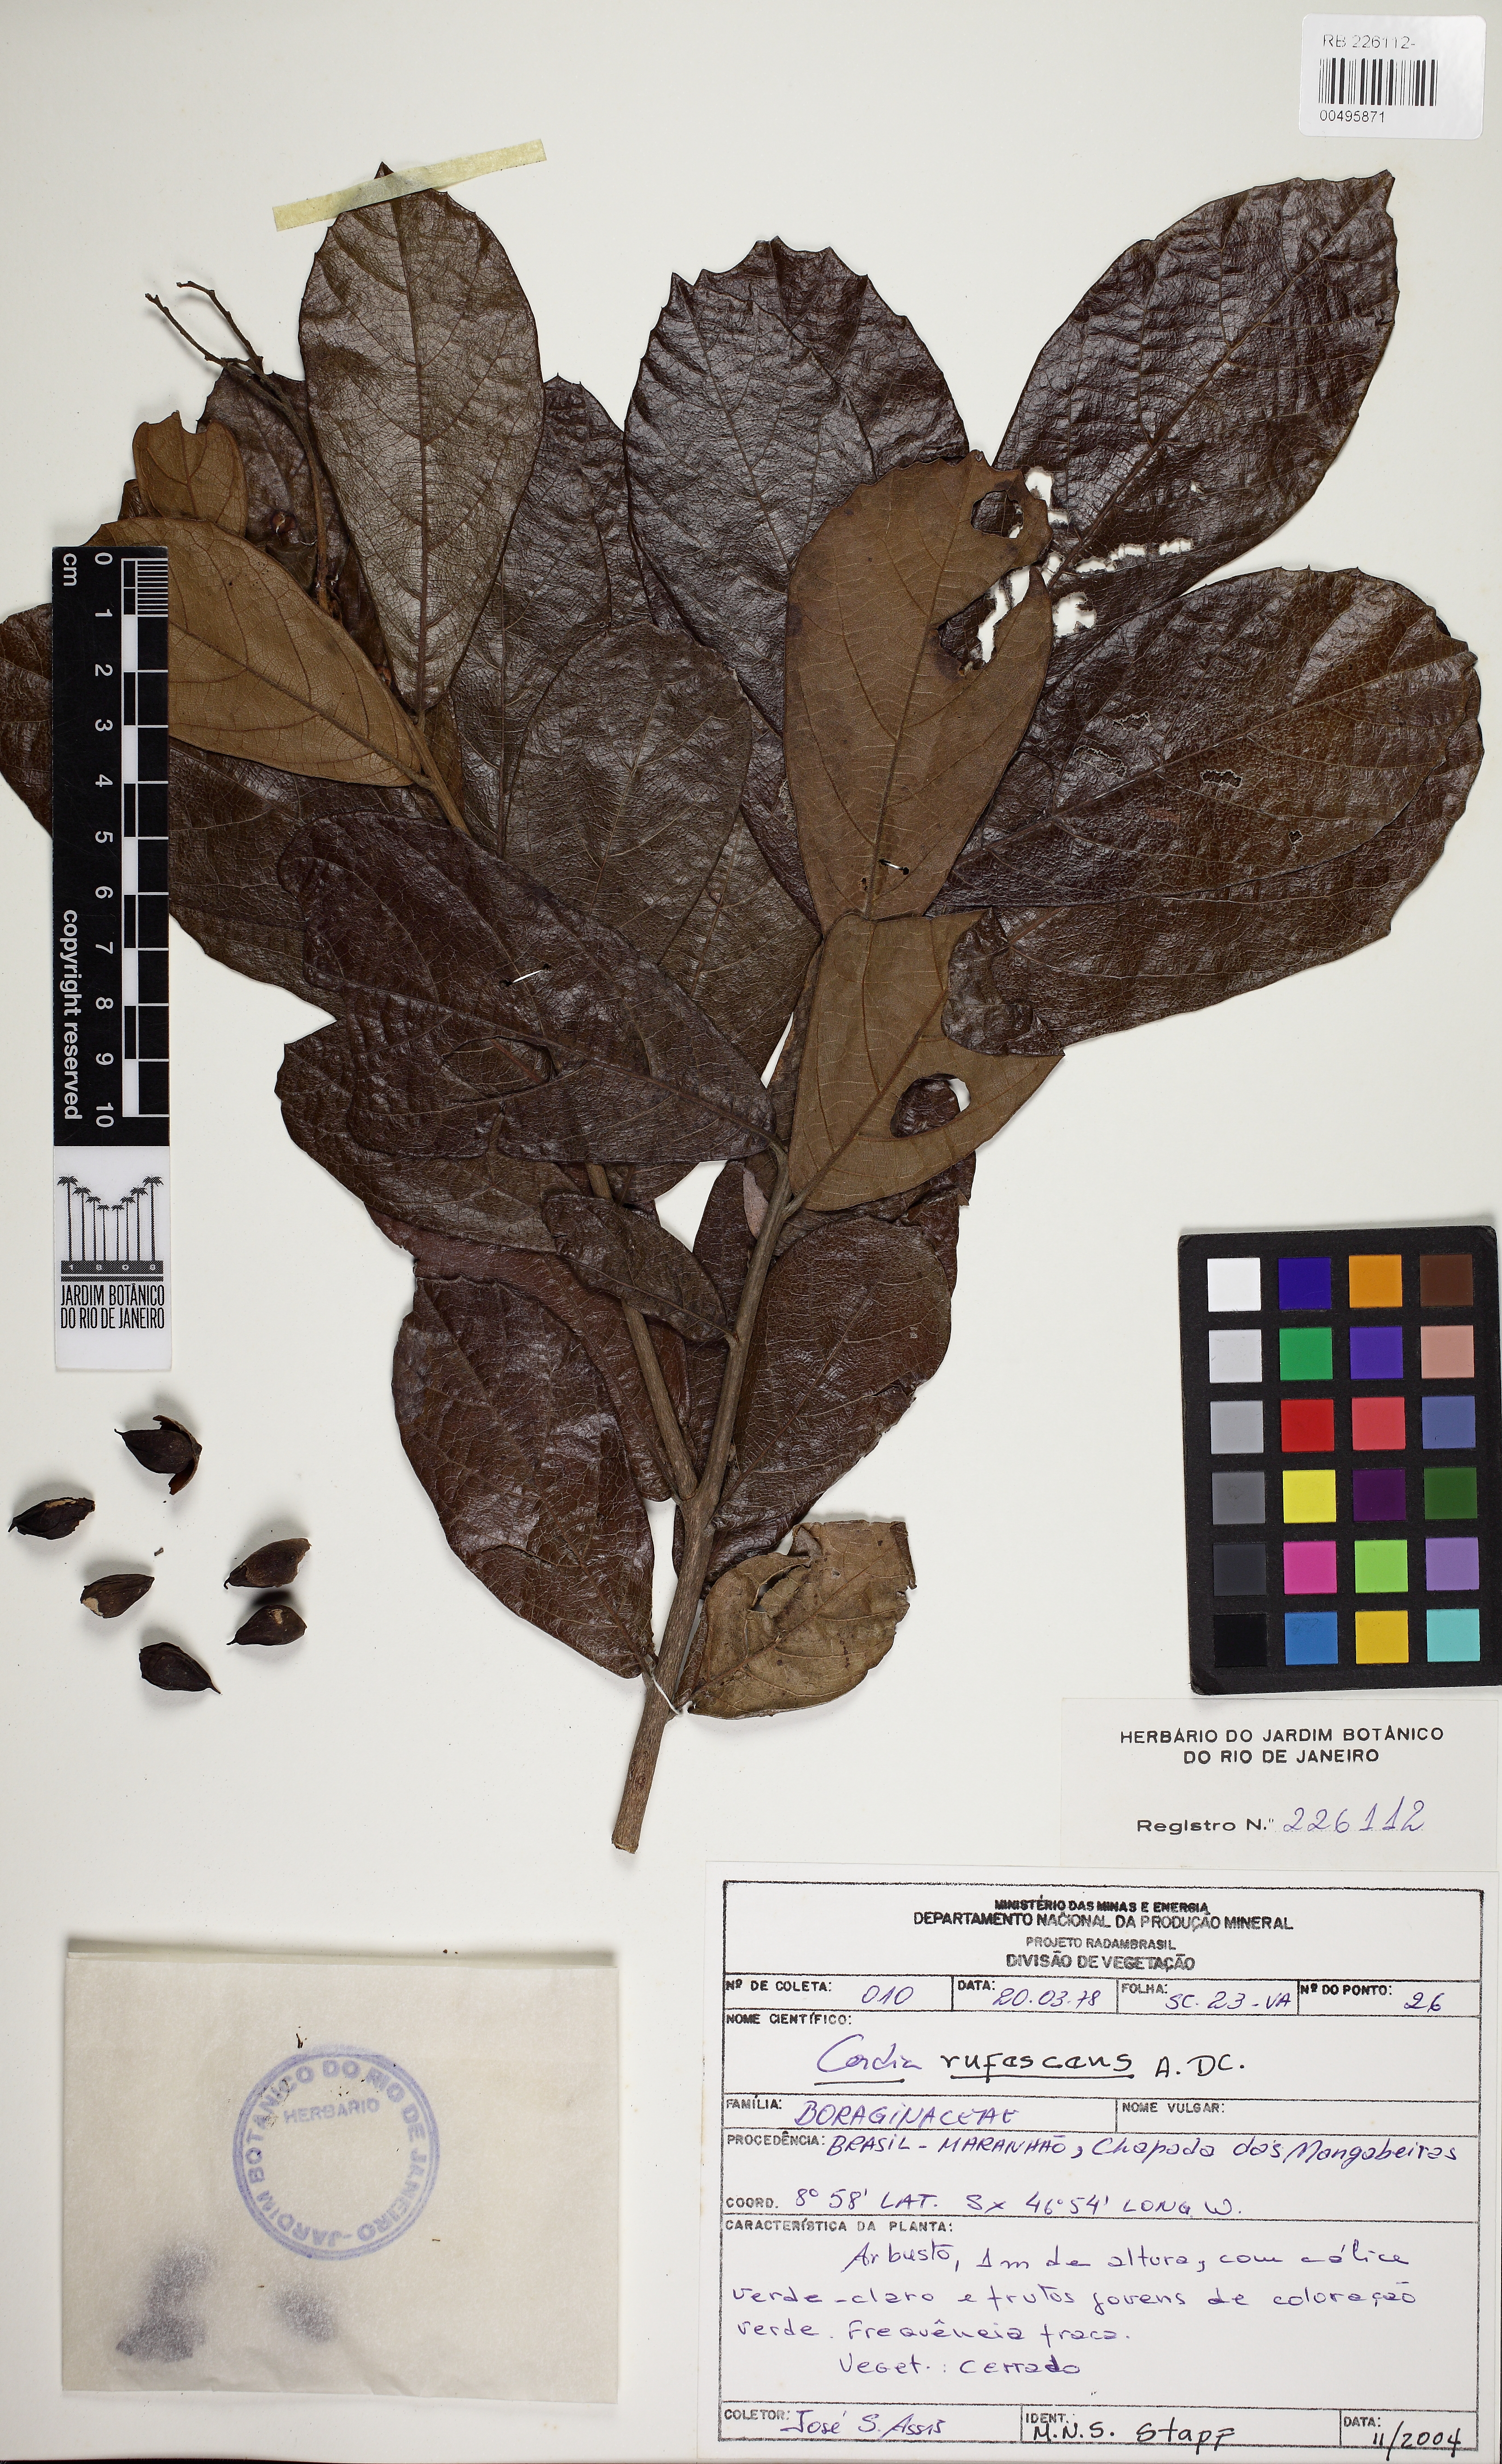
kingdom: Plantae
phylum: Tracheophyta
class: Magnoliopsida
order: Boraginales
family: Cordiaceae
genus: Cordia
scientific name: Cordia rufescens
